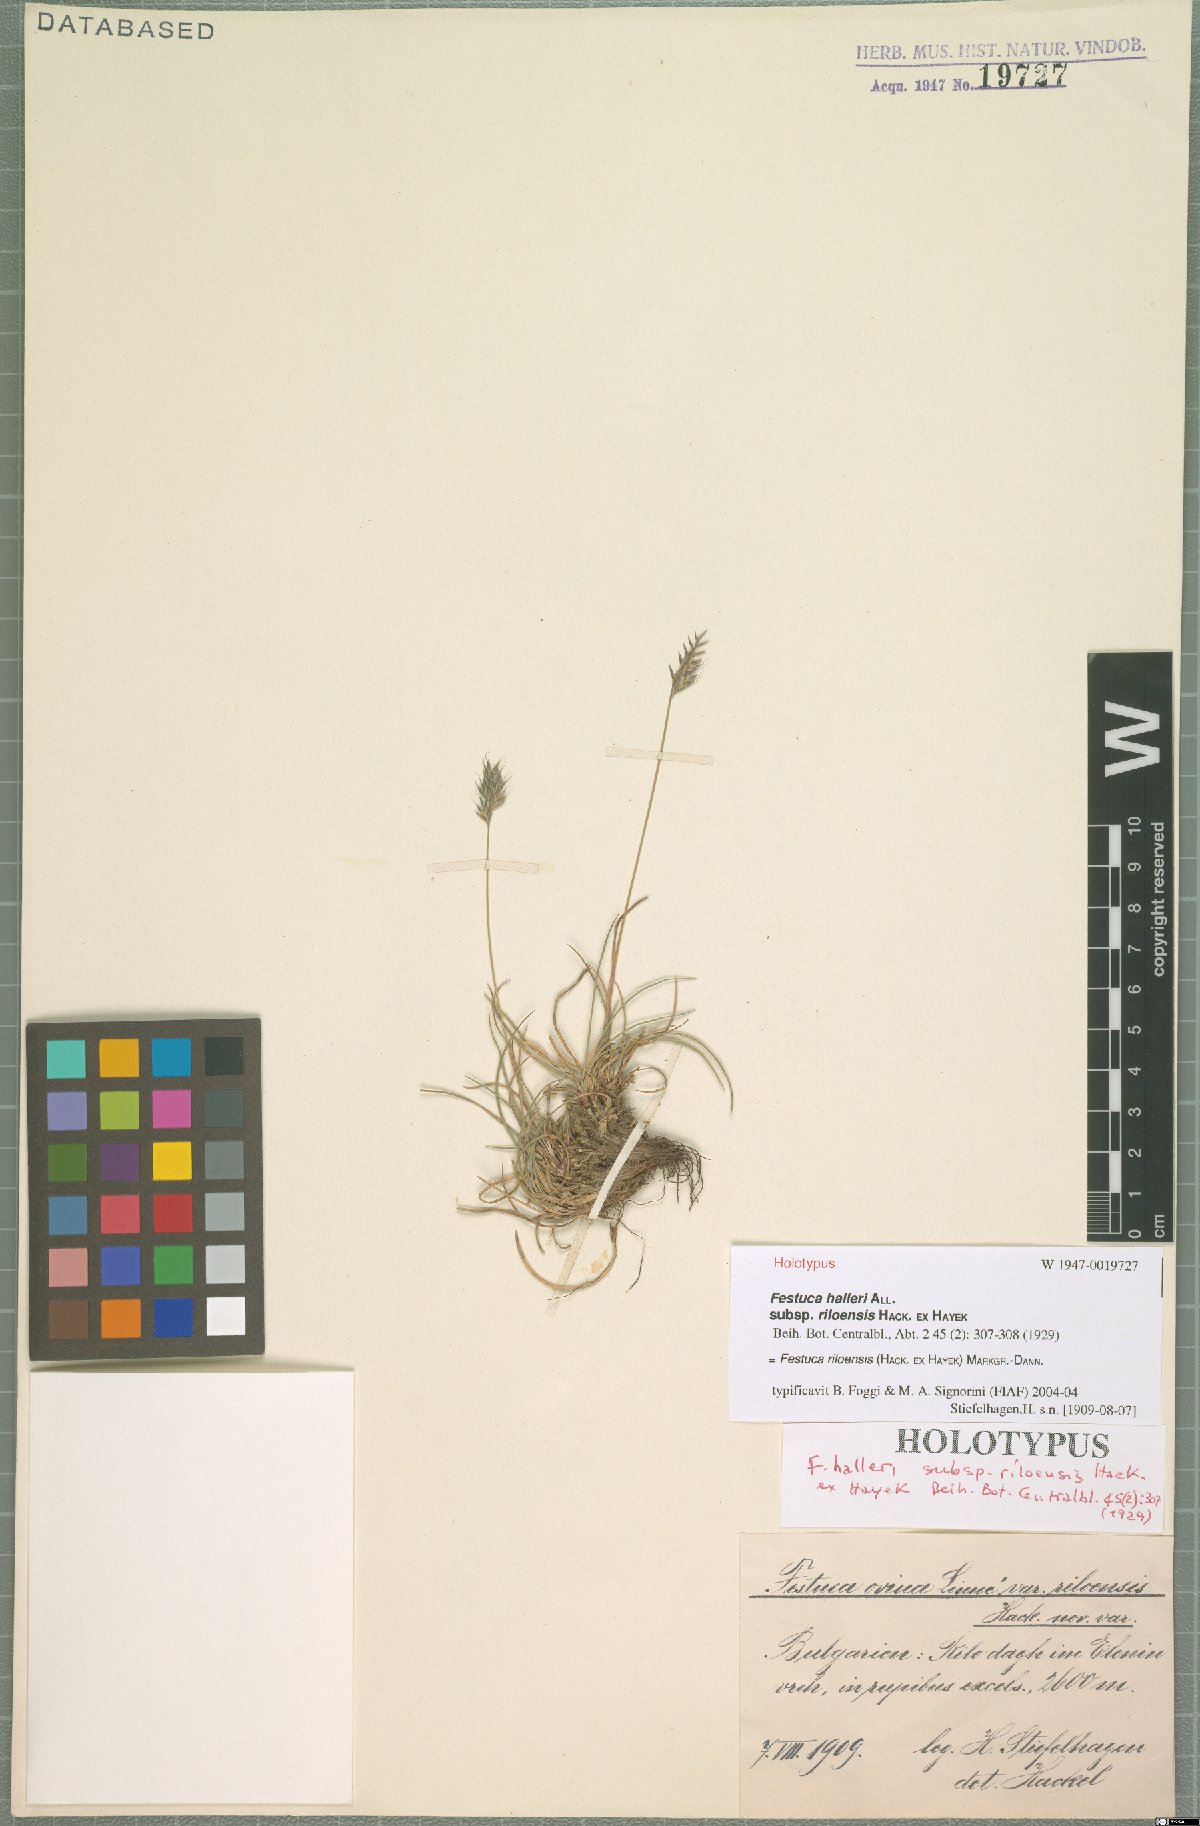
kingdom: Plantae
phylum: Tracheophyta
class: Liliopsida
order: Poales
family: Poaceae
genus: Festuca
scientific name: Festuca riloensis
